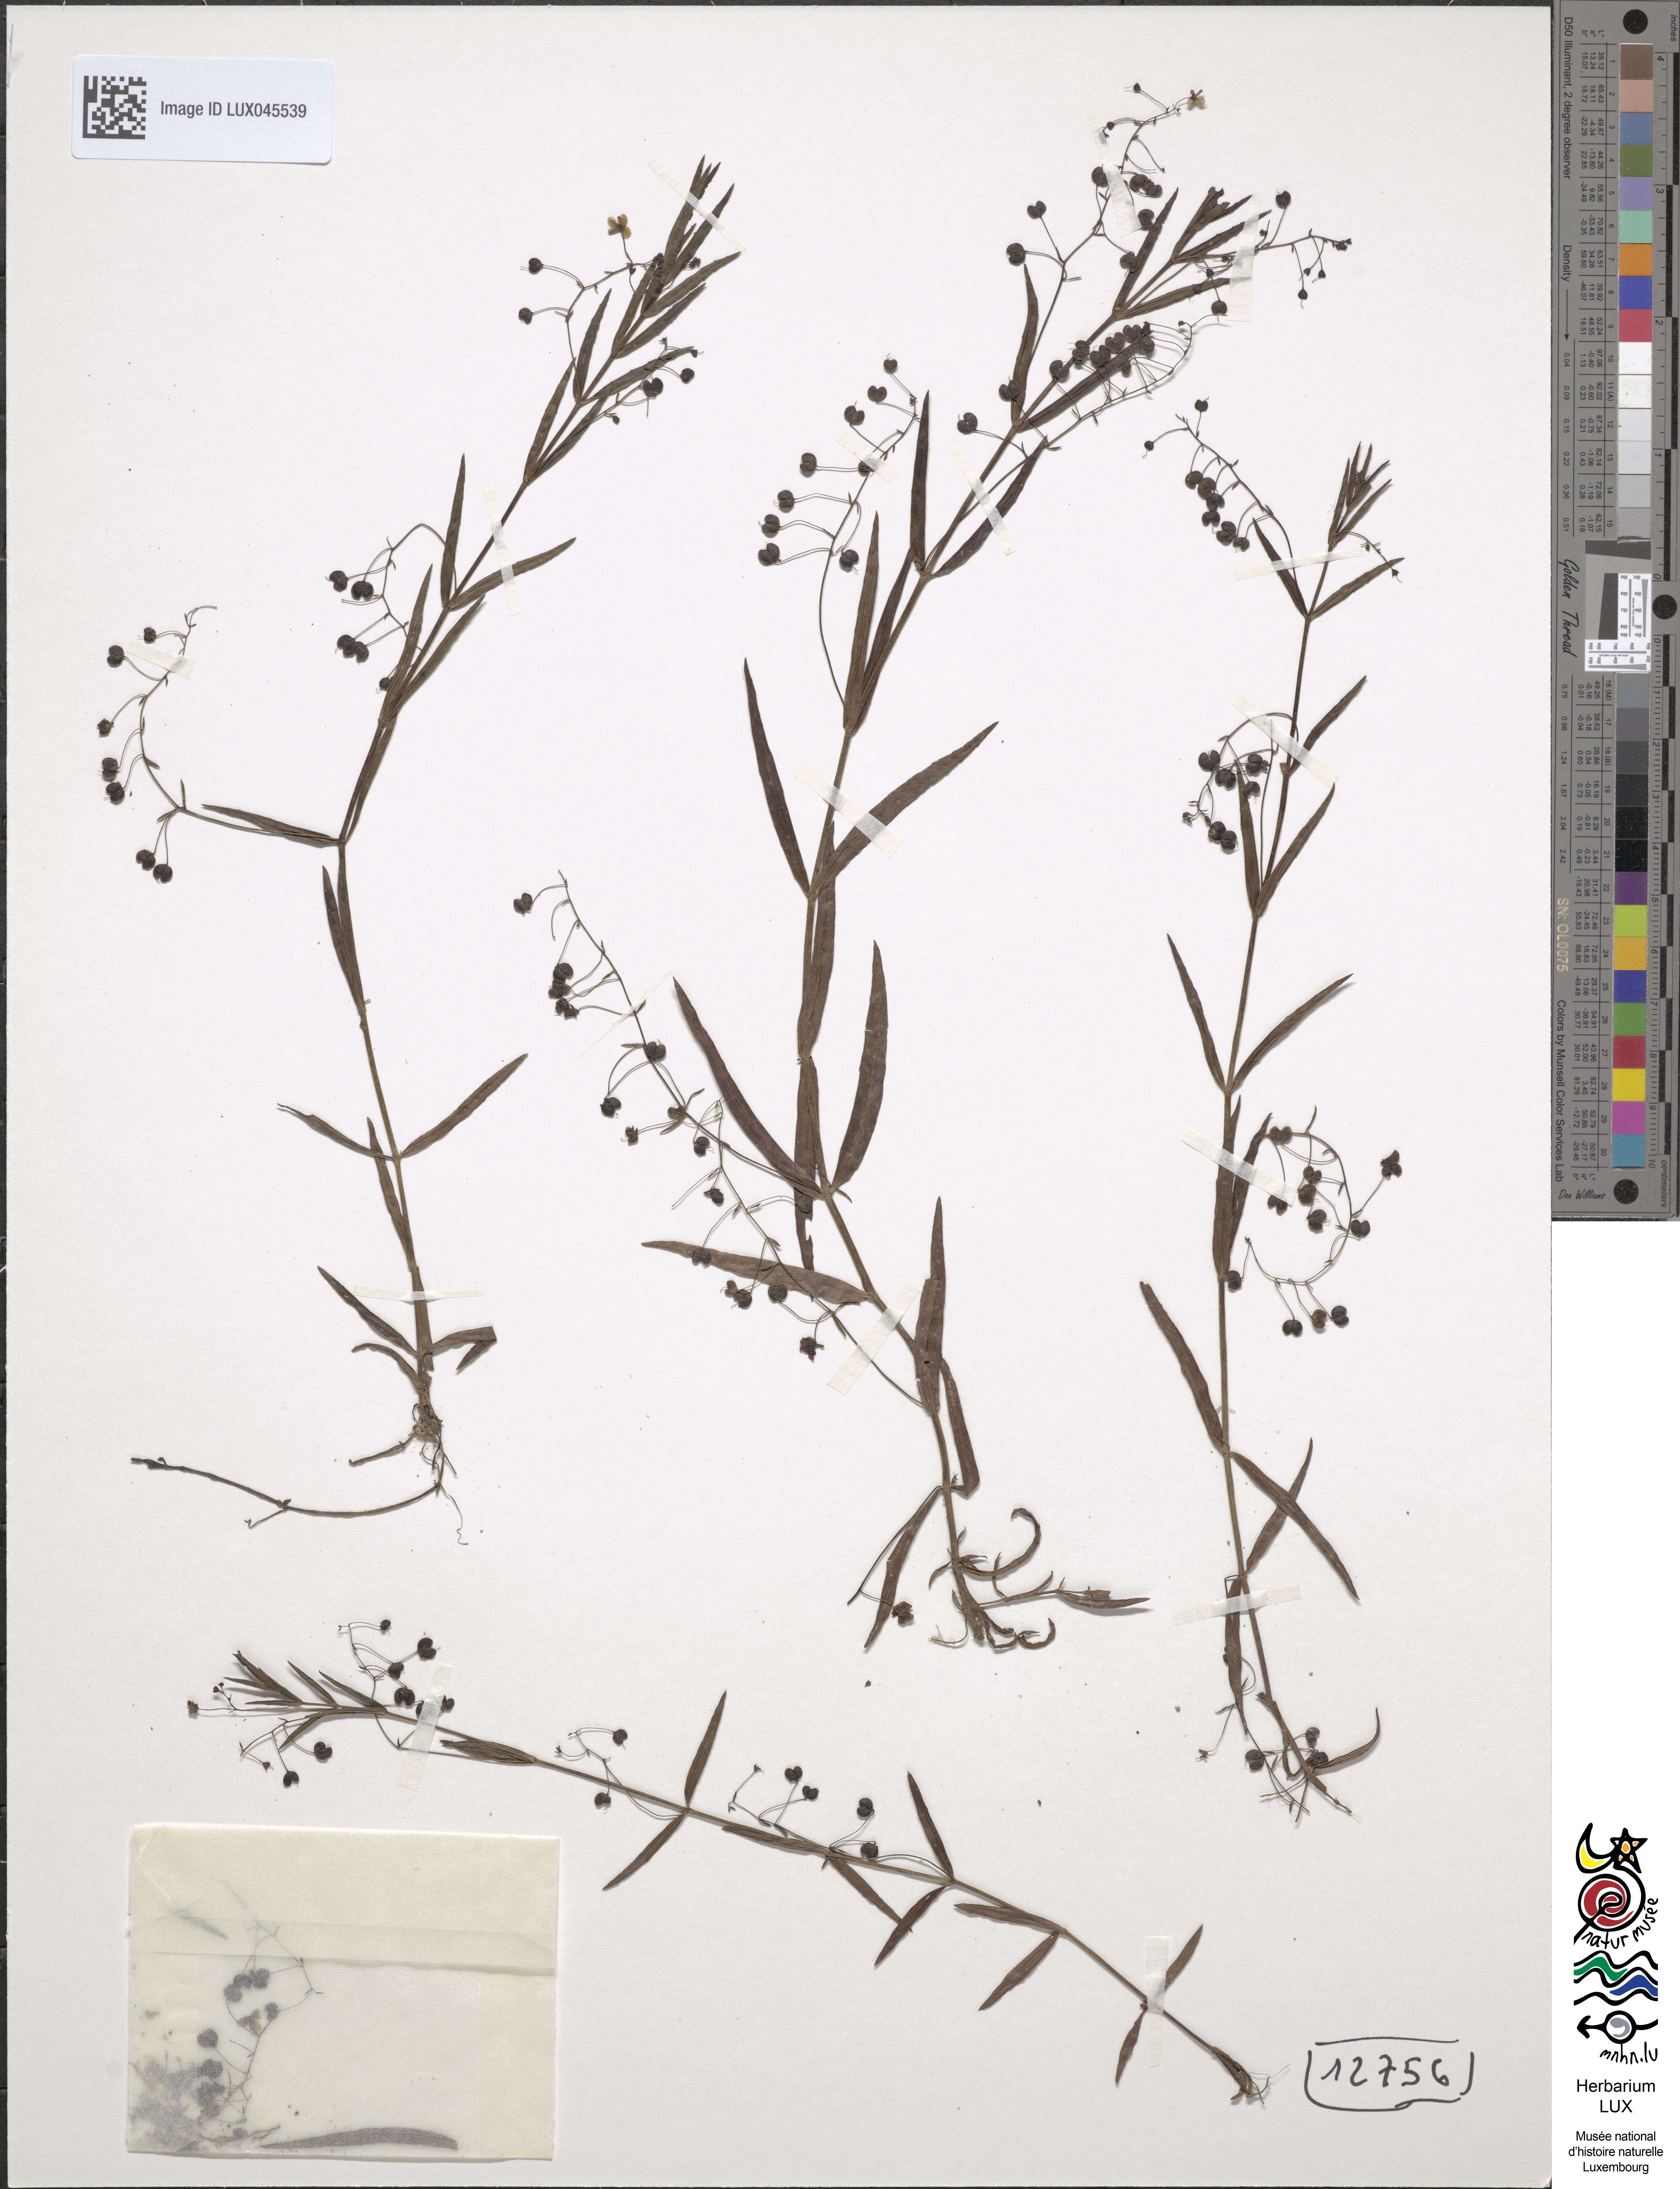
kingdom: Plantae
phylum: Tracheophyta
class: Magnoliopsida
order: Lamiales
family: Plantaginaceae
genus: Veronica
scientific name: Veronica scutellata
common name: Marsh speedwell
